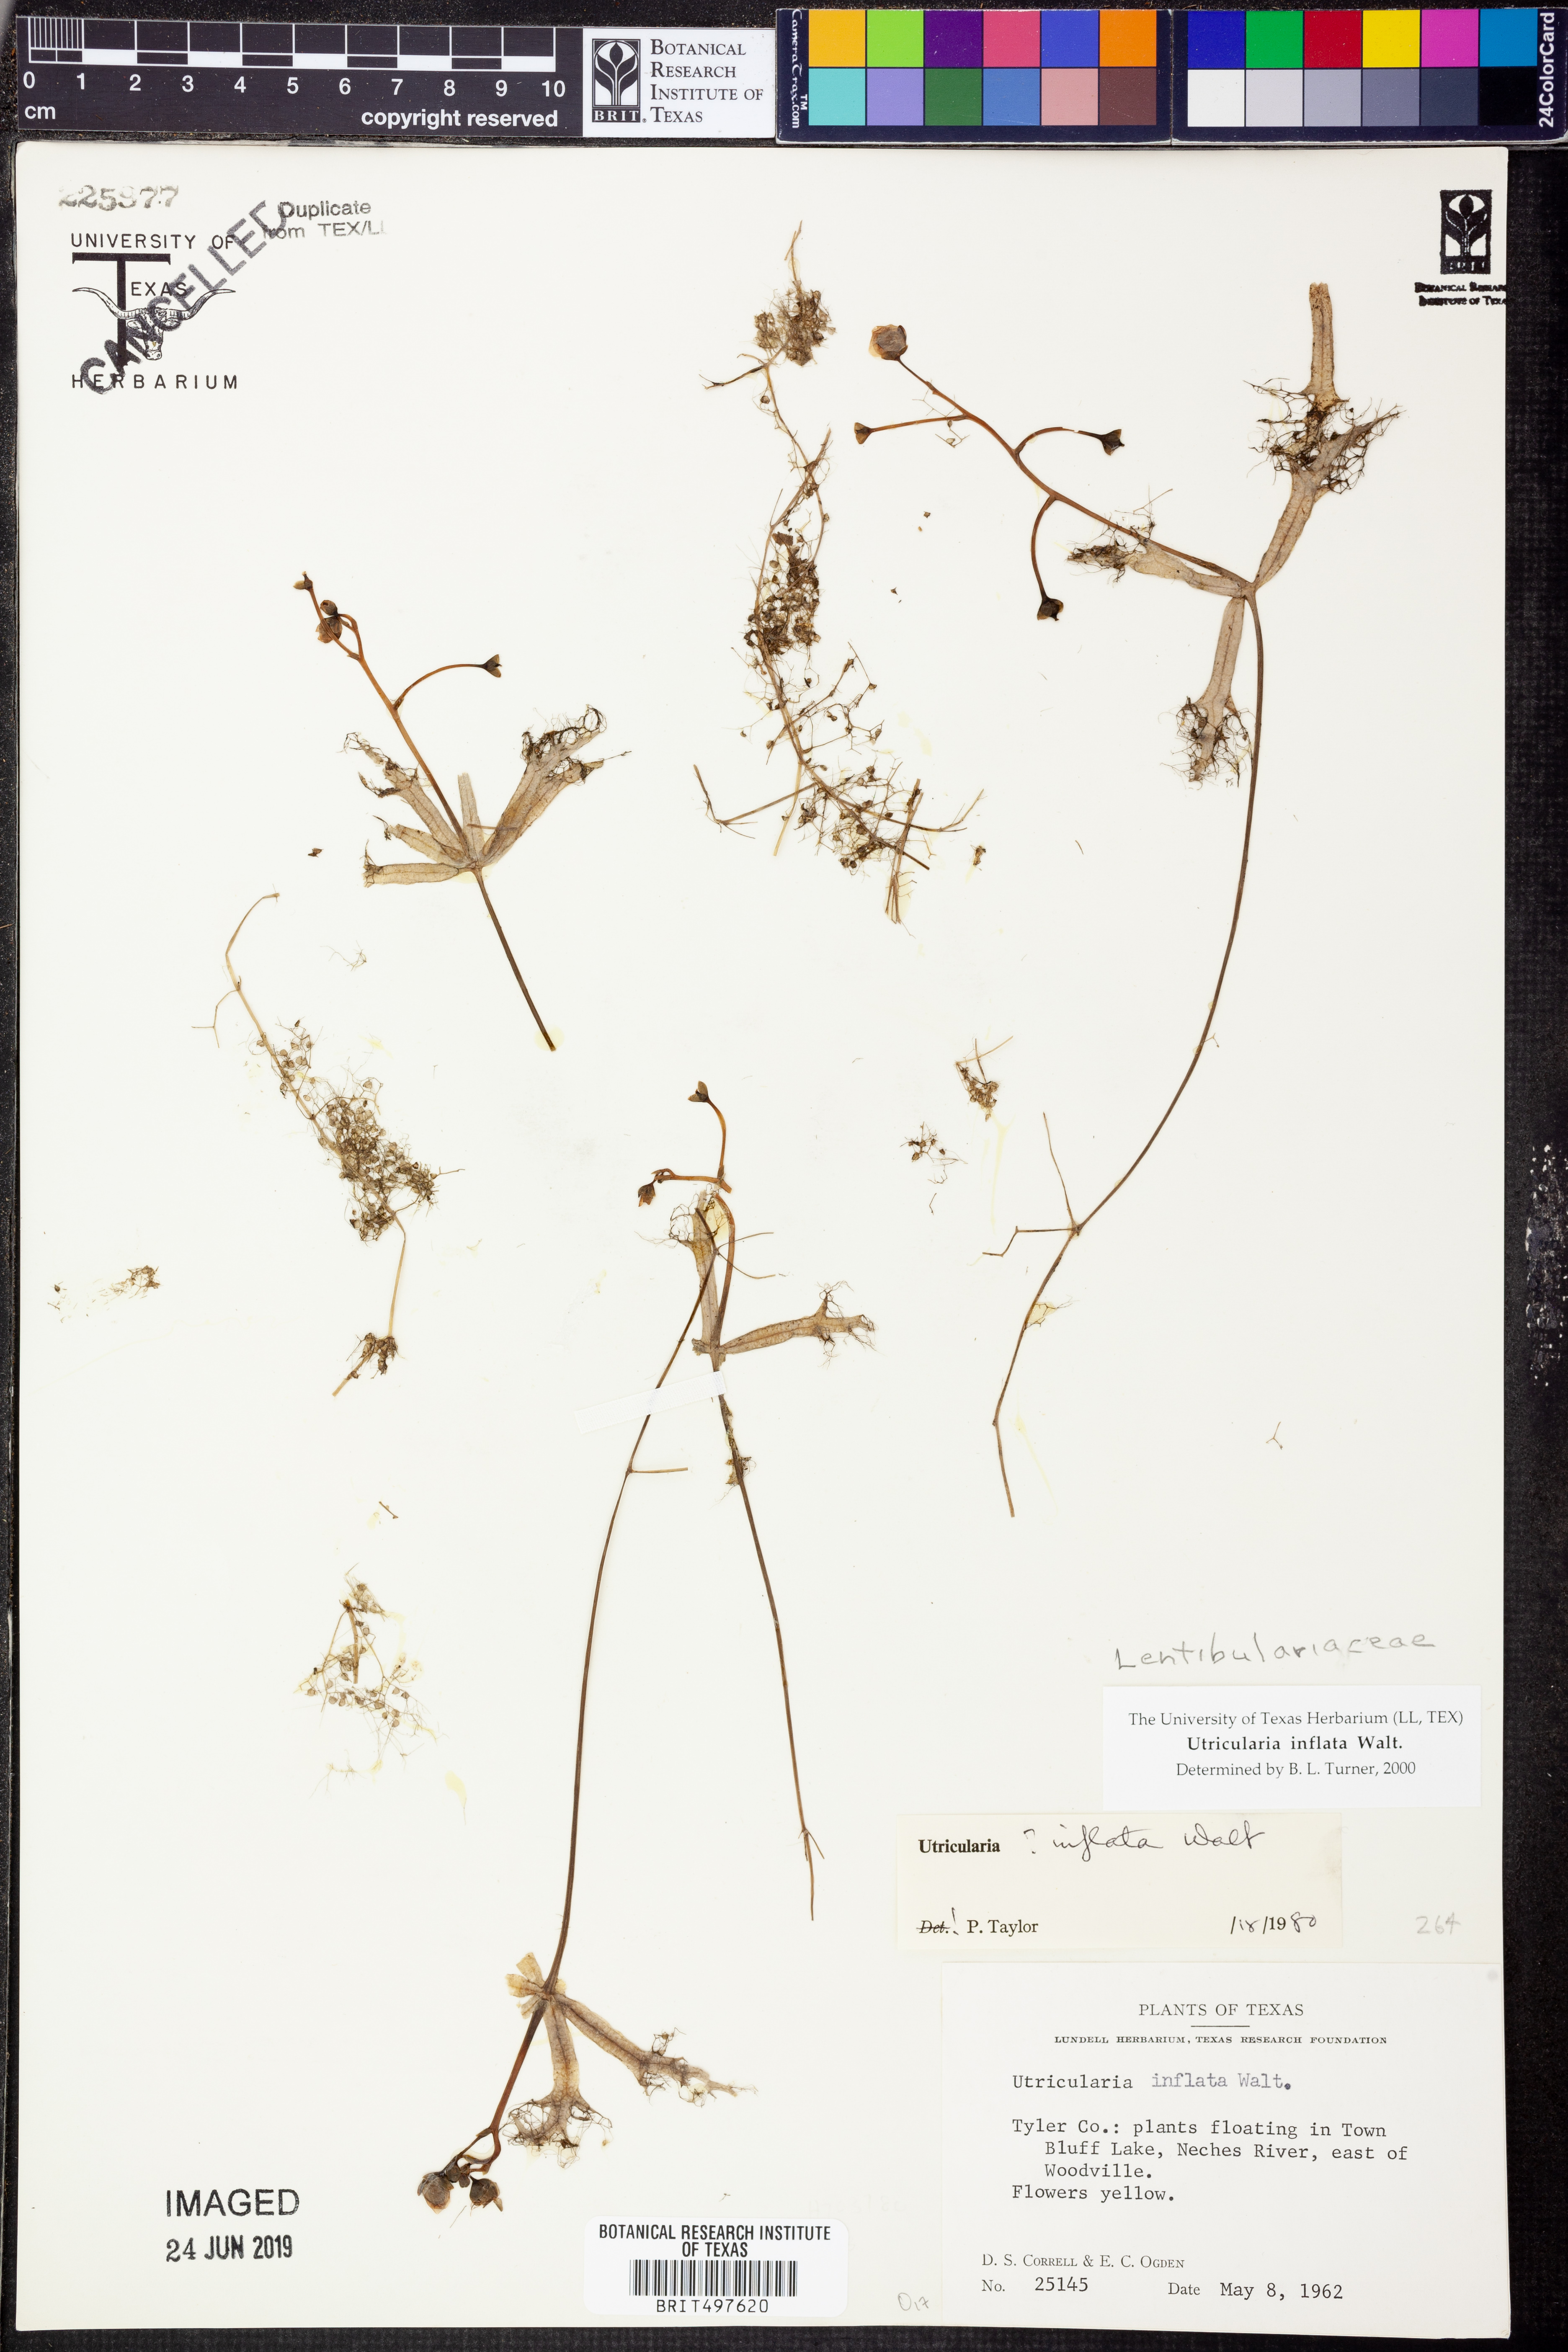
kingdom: Plantae
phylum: Tracheophyta
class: Magnoliopsida
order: Lamiales
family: Lentibulariaceae
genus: Utricularia
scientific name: Utricularia inflata
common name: Floating bladderwort
